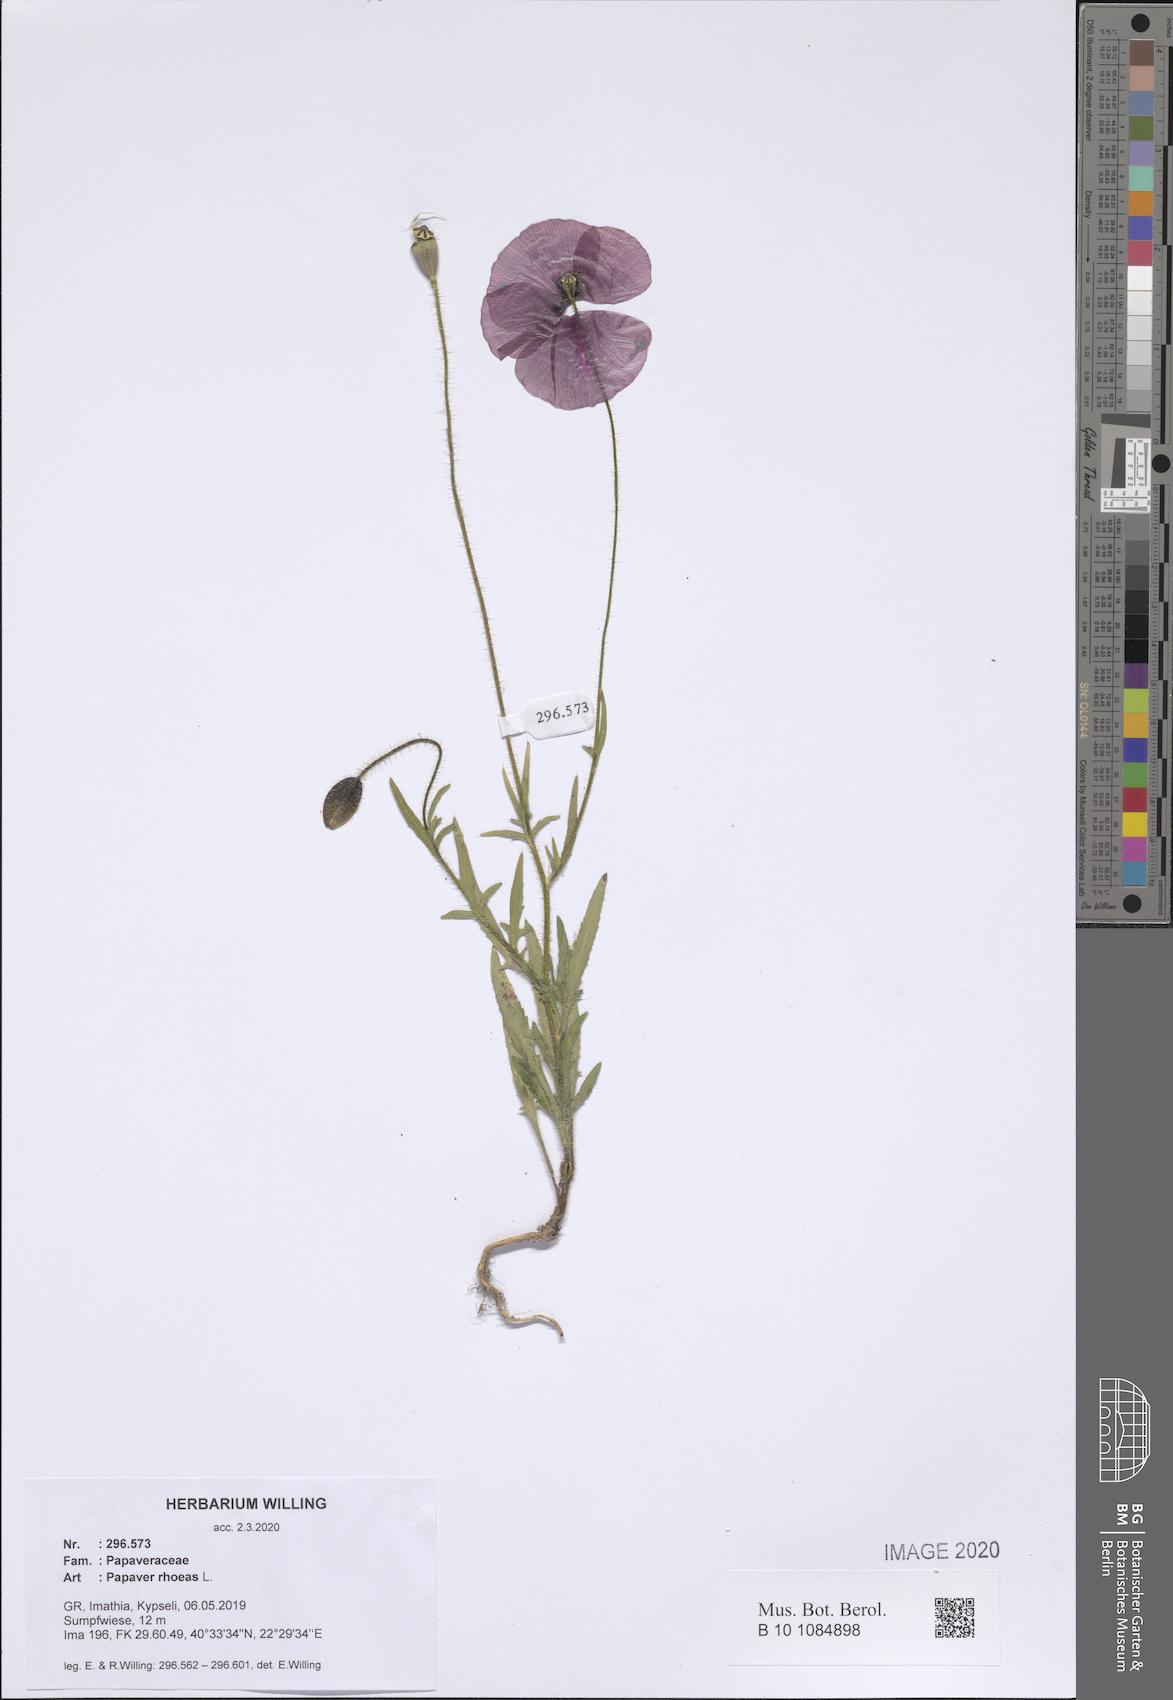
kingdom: Plantae
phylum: Tracheophyta
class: Magnoliopsida
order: Ranunculales
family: Papaveraceae
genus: Papaver
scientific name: Papaver rhoeas
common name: Corn poppy
